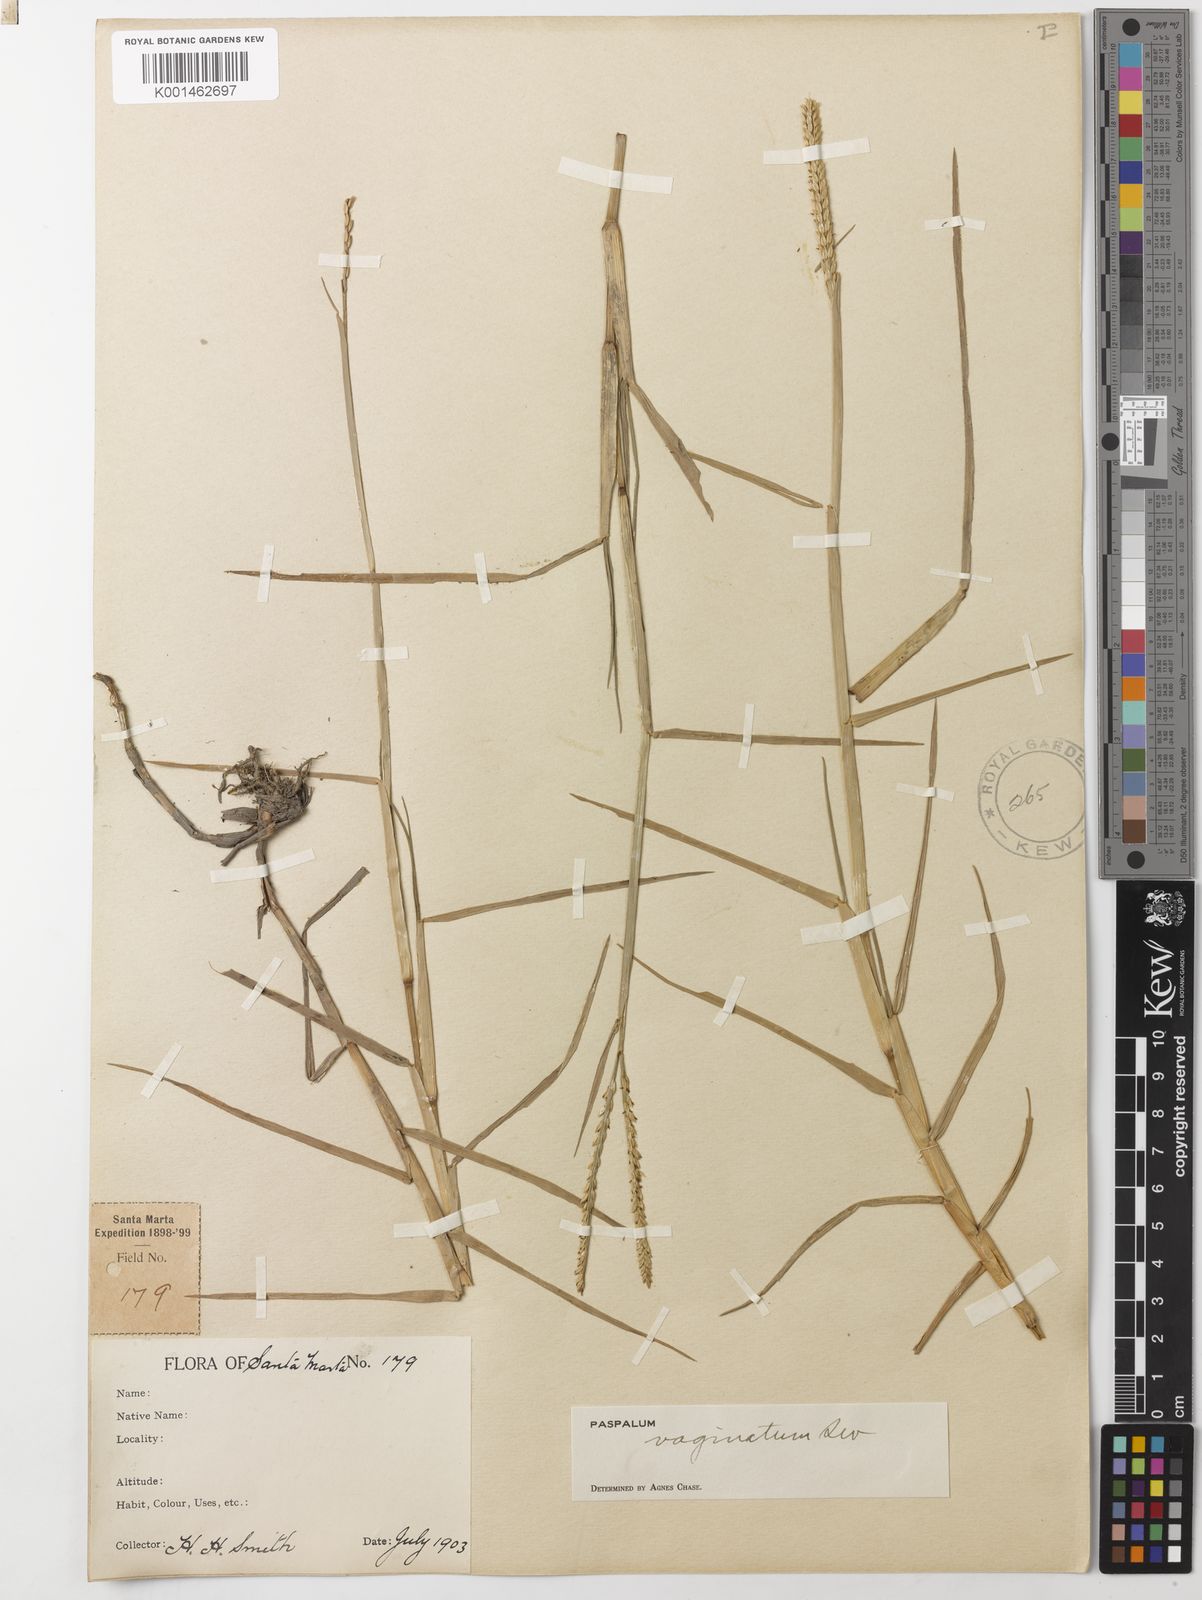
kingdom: Plantae
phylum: Tracheophyta
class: Liliopsida
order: Poales
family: Poaceae
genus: Paspalum
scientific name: Paspalum vaginatum
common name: Seashore paspalum
